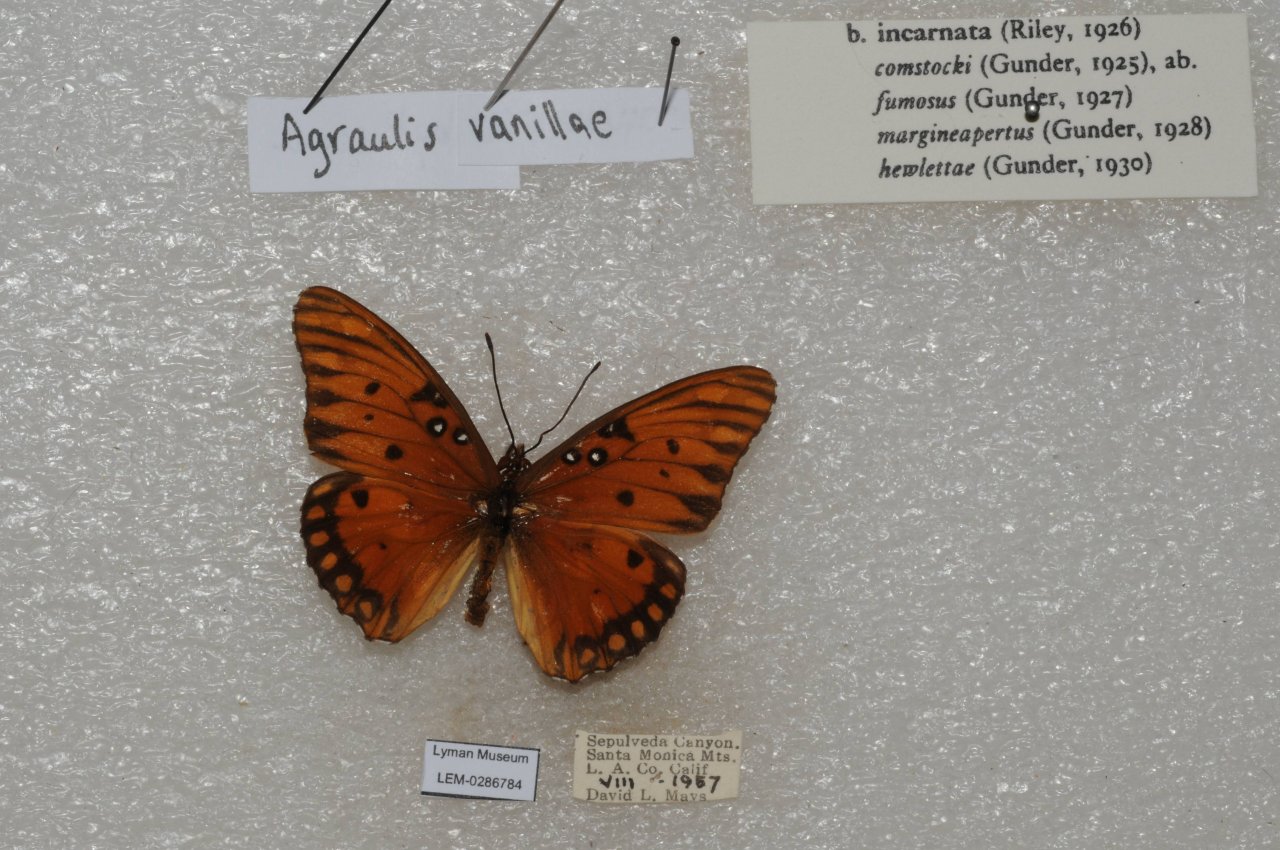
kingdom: Animalia
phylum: Arthropoda
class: Insecta
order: Lepidoptera
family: Nymphalidae
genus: Dione
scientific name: Dione vanillae
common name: Gulf Fritillary
